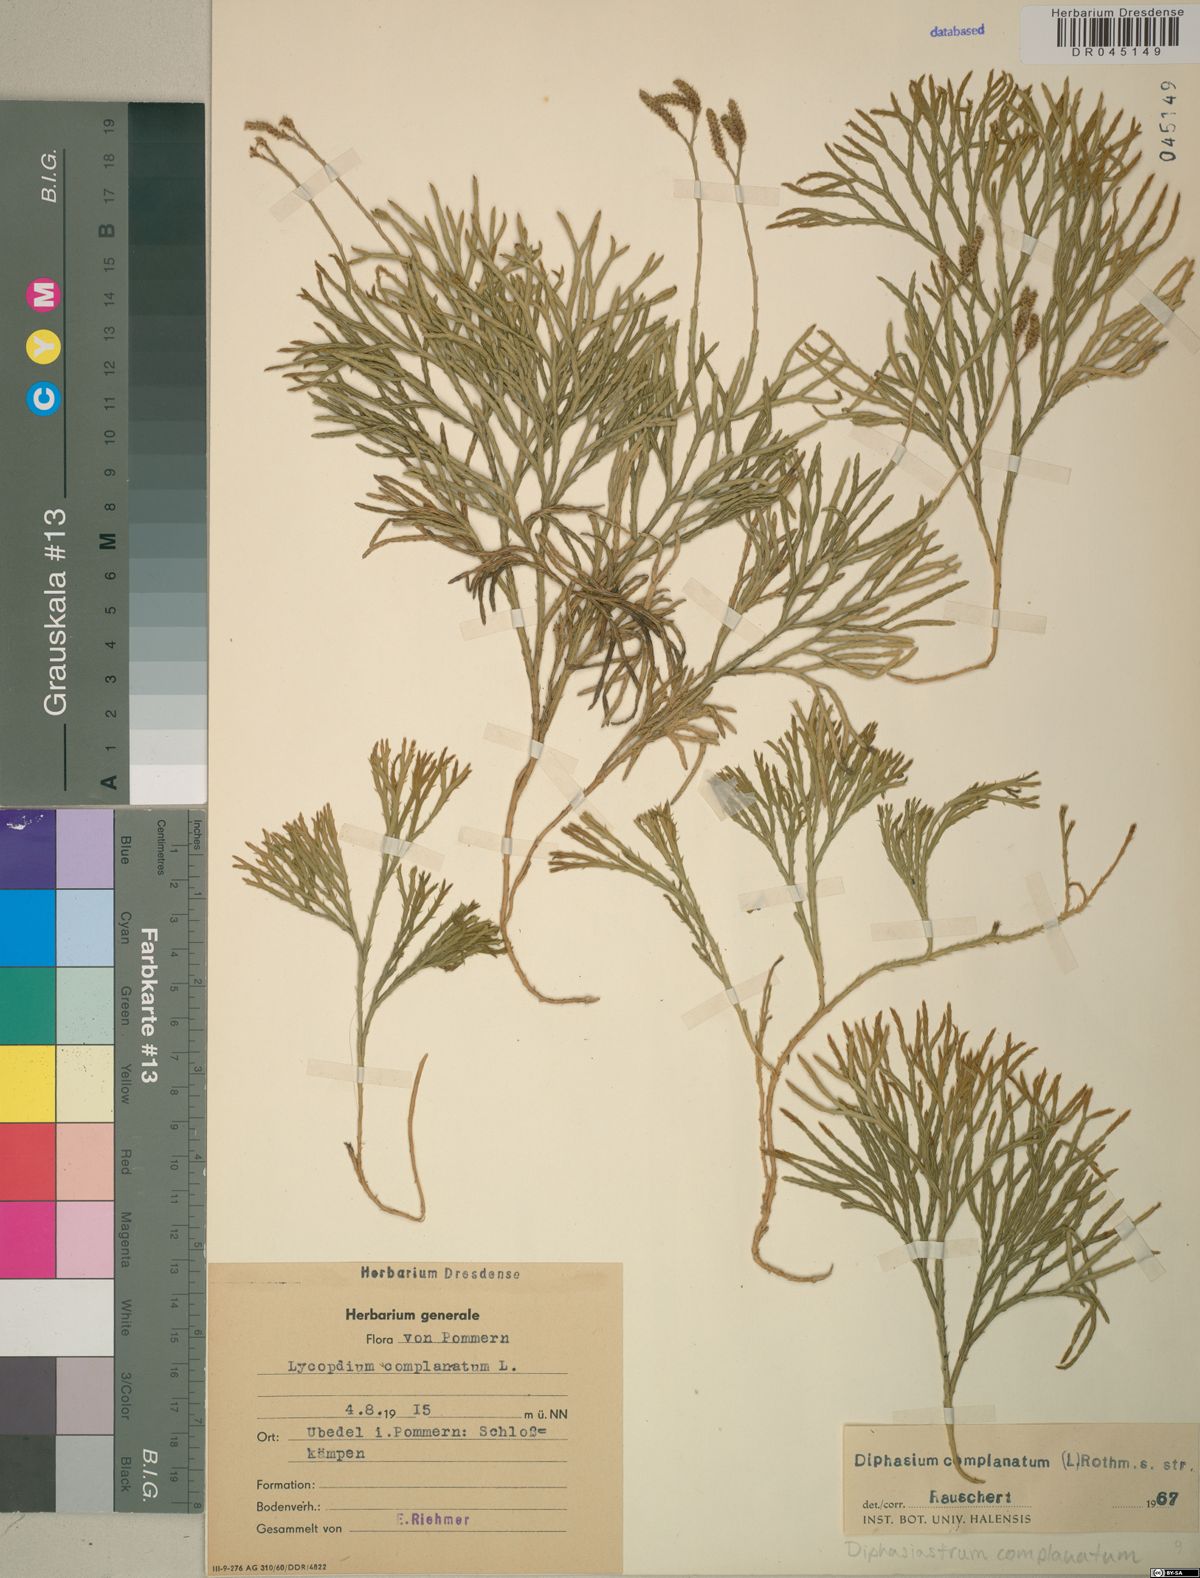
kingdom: Plantae
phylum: Tracheophyta
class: Lycopodiopsida
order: Lycopodiales
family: Lycopodiaceae
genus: Diphasiastrum
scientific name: Diphasiastrum complanatum
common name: Northern running-pine
